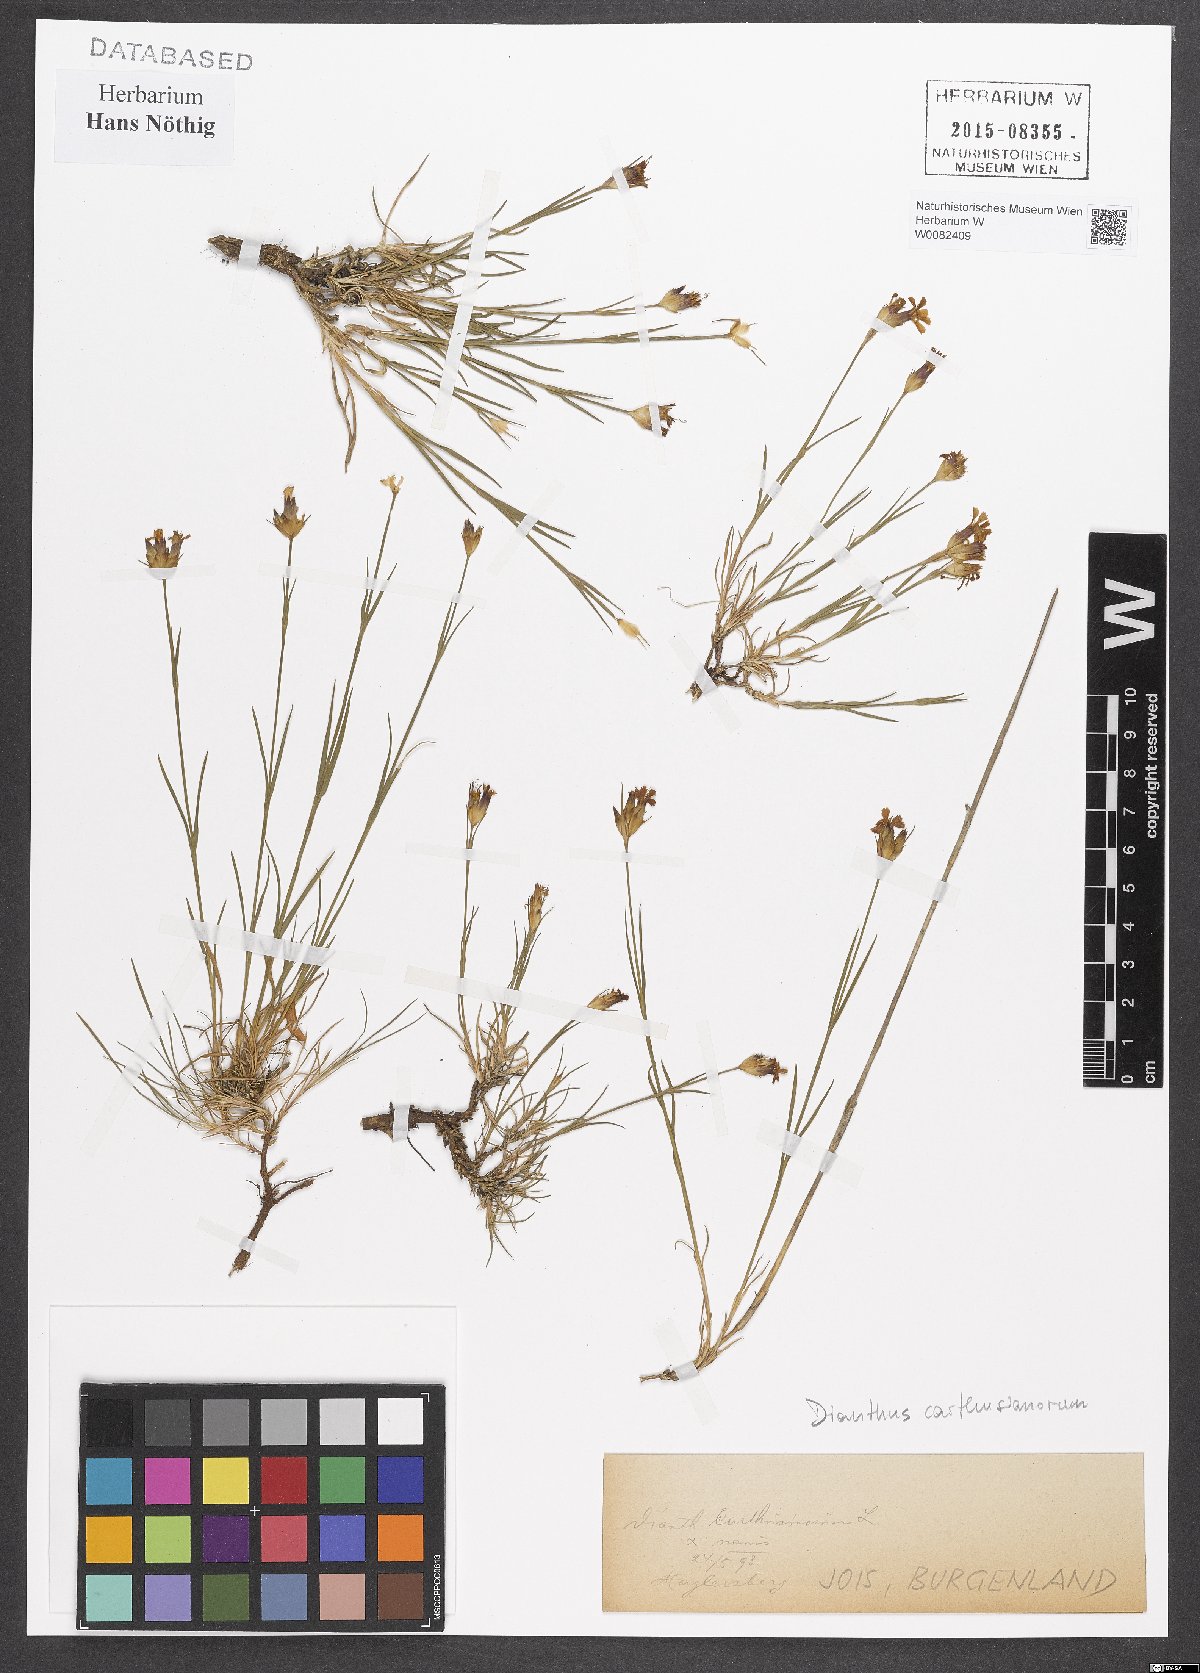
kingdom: Plantae
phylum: Tracheophyta
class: Magnoliopsida
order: Caryophyllales
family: Caryophyllaceae
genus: Dianthus
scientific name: Dianthus carthusianorum
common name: Carthusian pink
